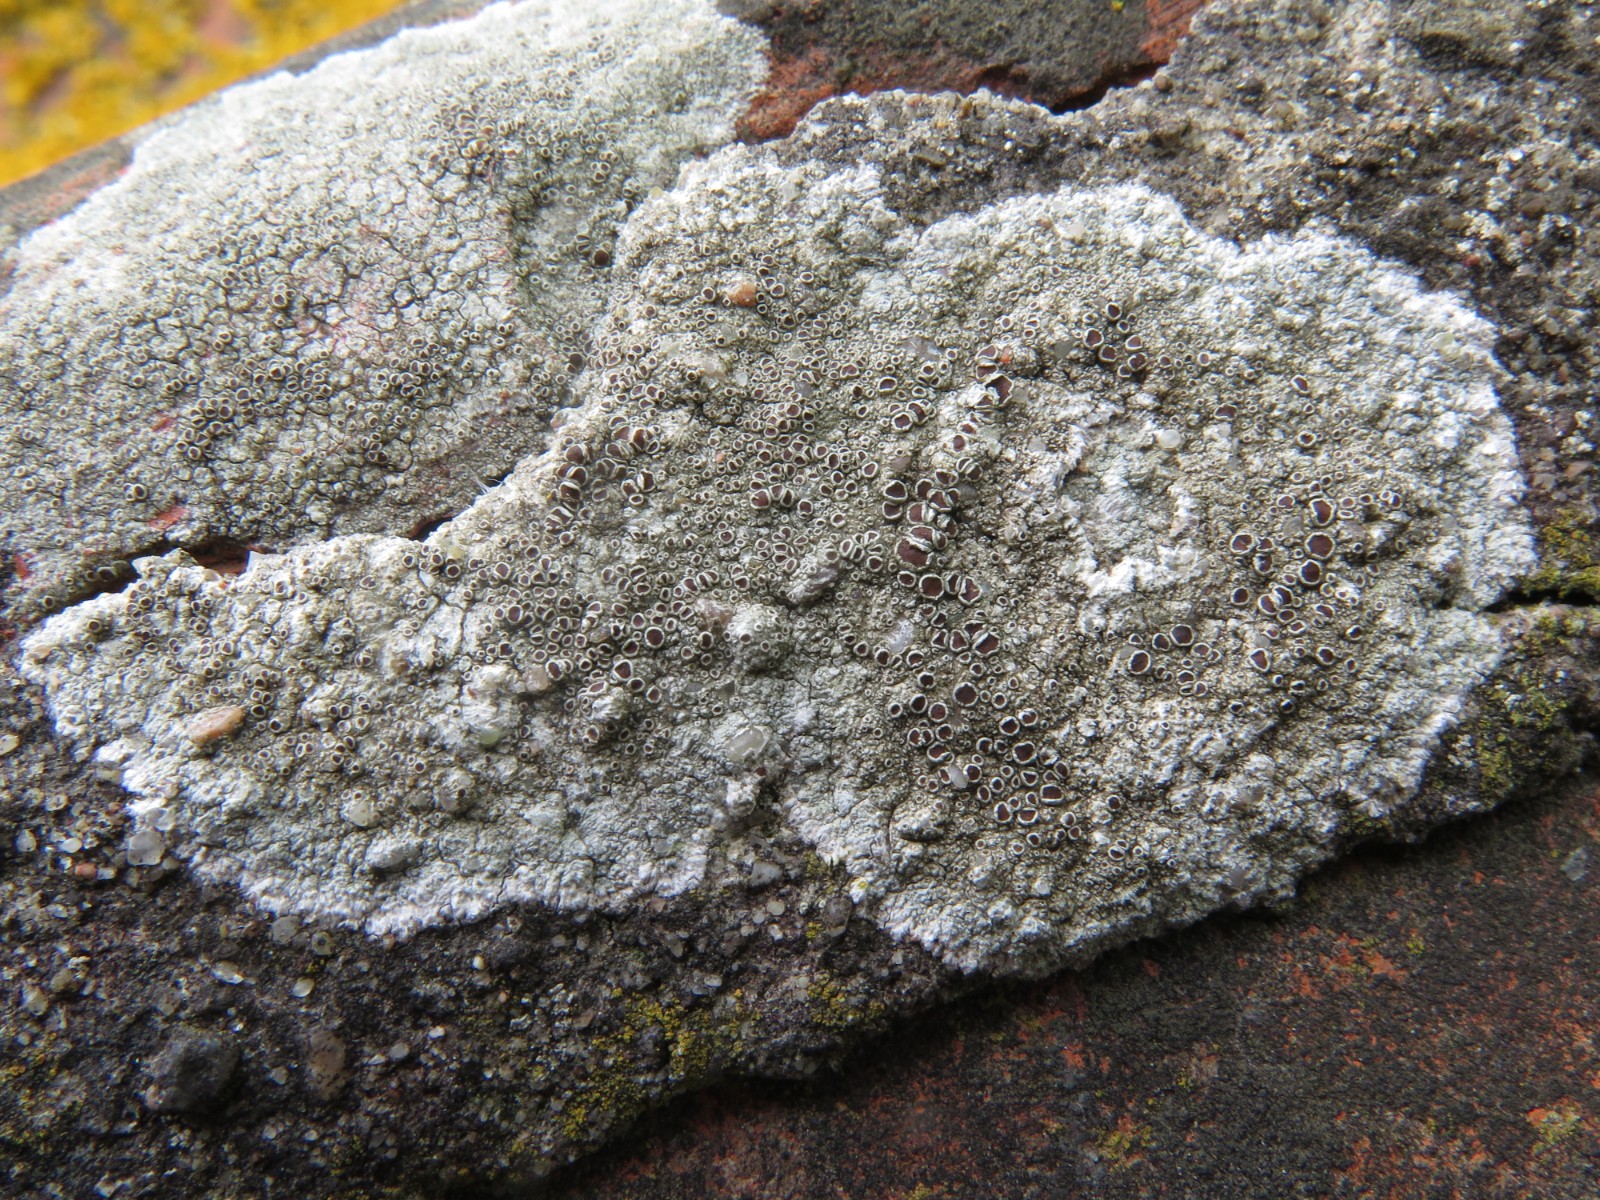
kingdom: Fungi
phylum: Ascomycota
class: Lecanoromycetes
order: Lecanorales
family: Lecanoraceae
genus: Lecanora
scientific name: Lecanora campestris
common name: mur-kantskivelav
